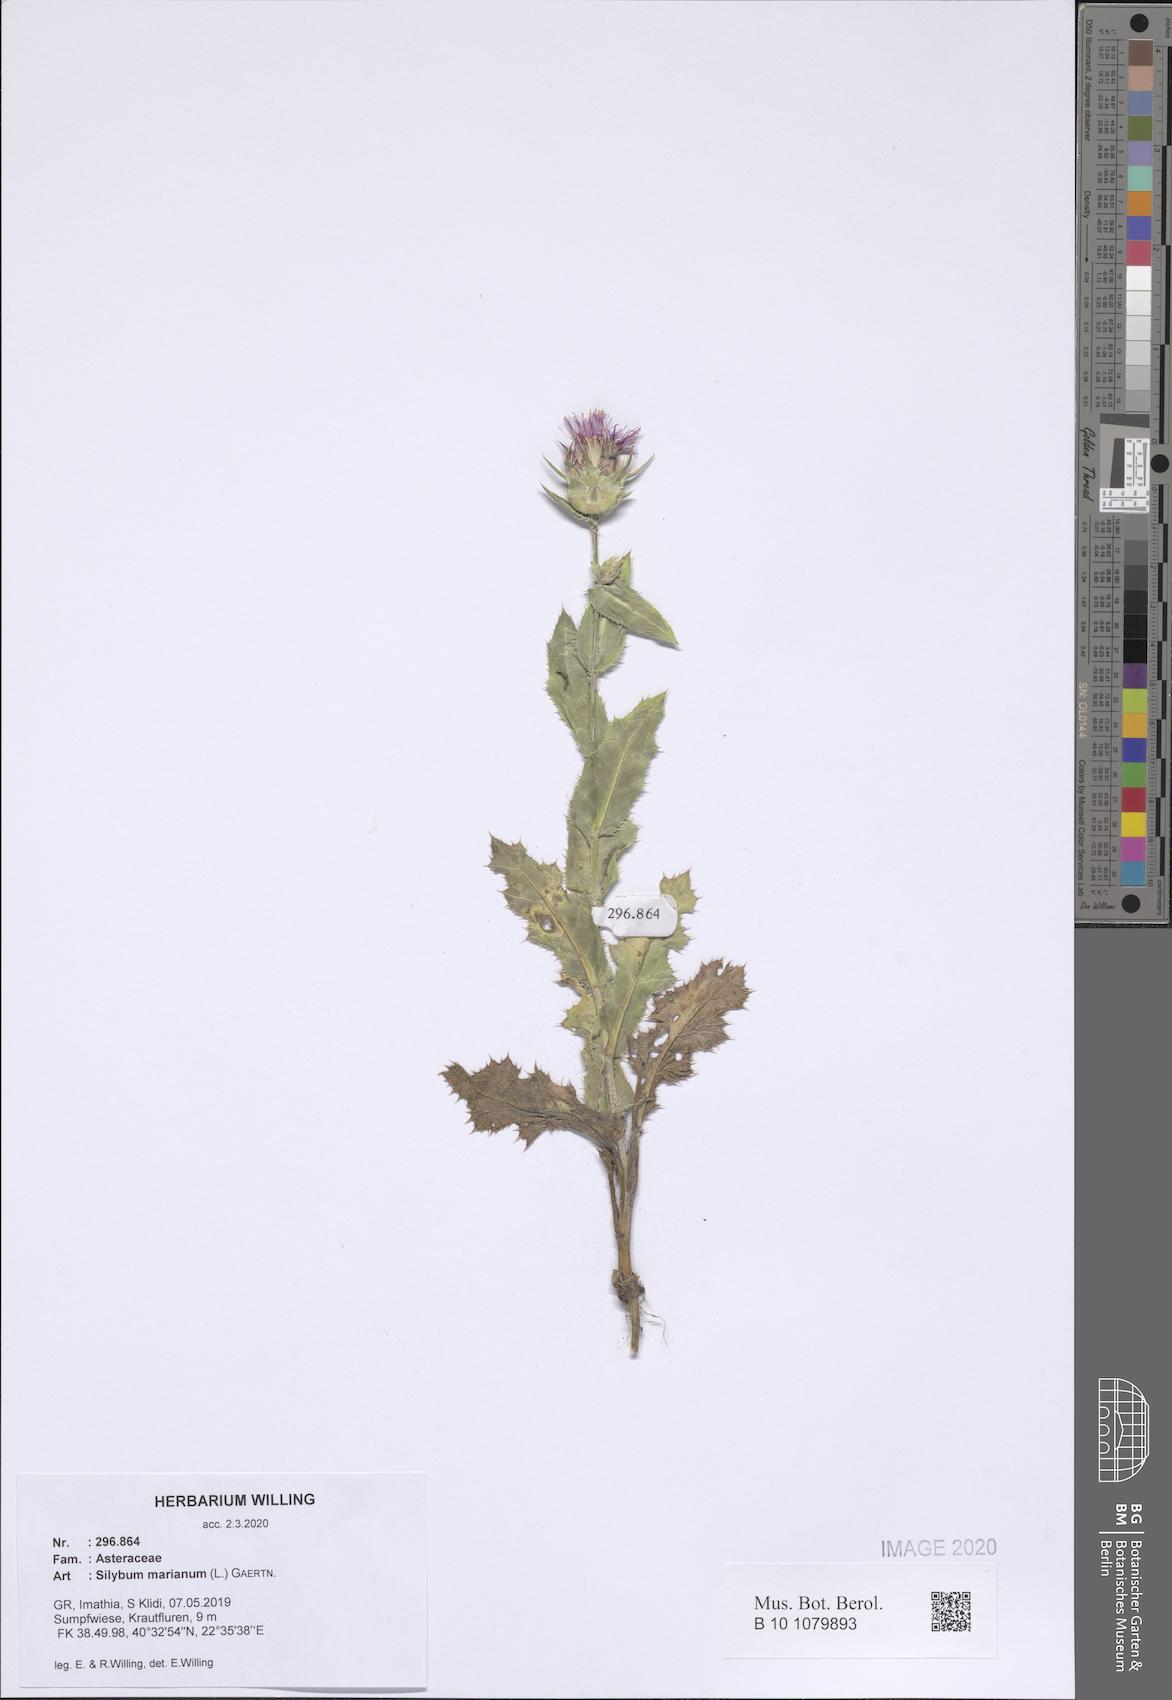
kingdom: Plantae
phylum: Tracheophyta
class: Magnoliopsida
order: Asterales
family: Asteraceae
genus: Silybum
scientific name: Silybum marianum
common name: Milk thistle
